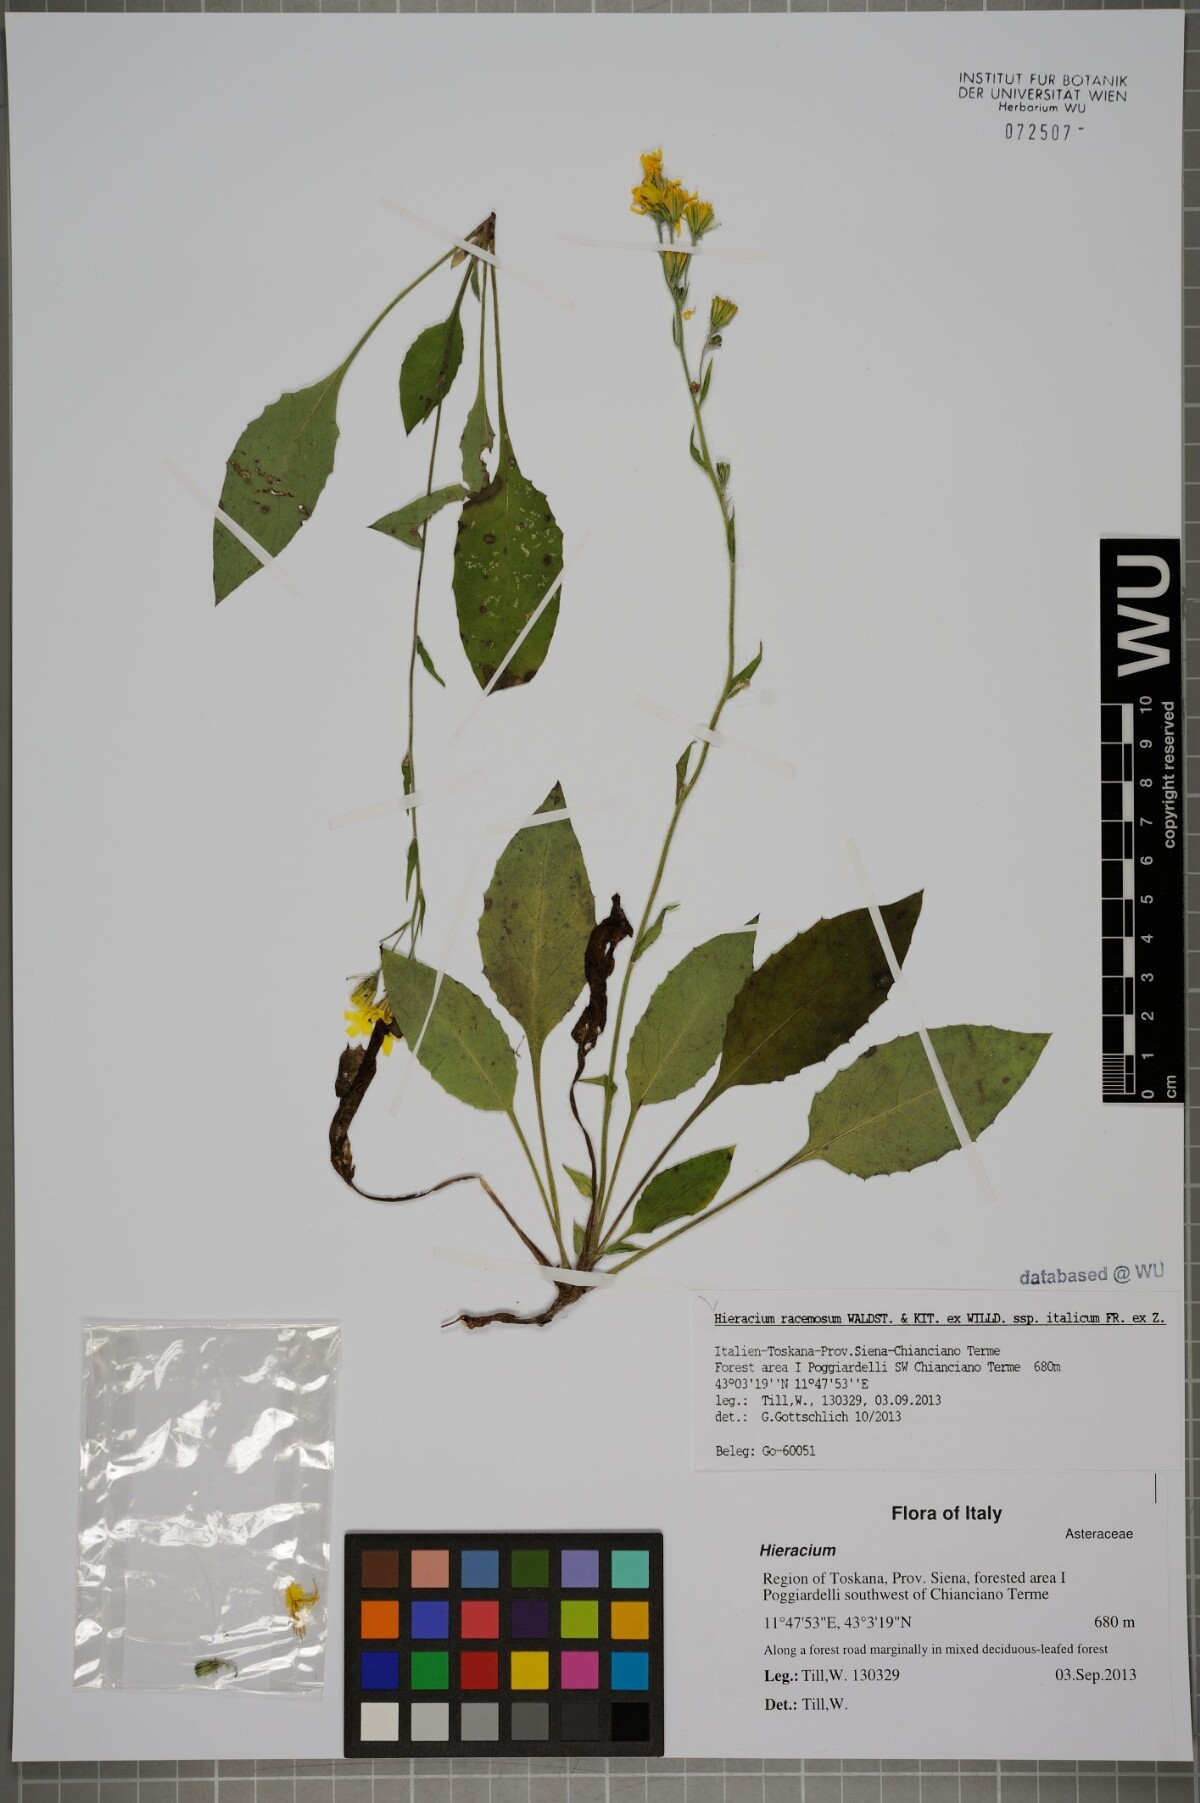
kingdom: Plantae
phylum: Tracheophyta
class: Magnoliopsida
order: Asterales
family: Asteraceae
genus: Hieracium
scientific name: Hieracium racemosum
